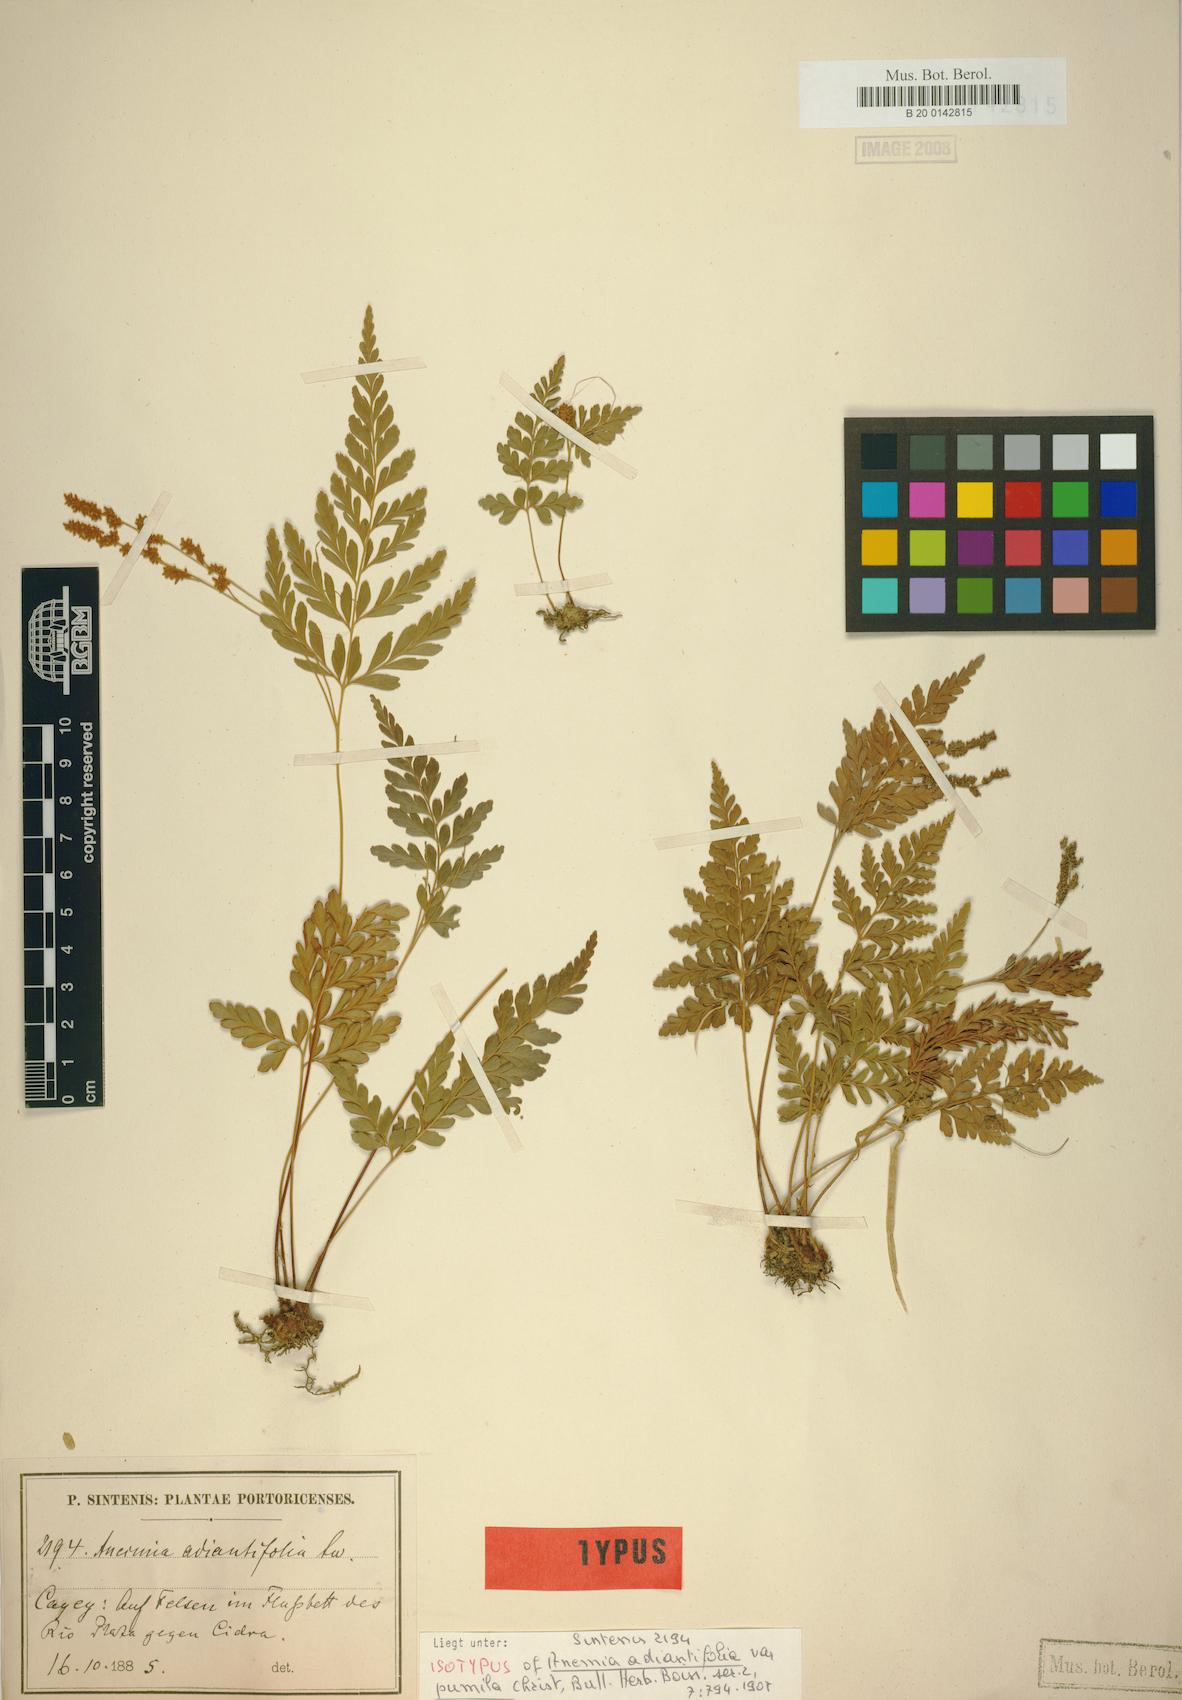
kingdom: Plantae
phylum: Tracheophyta
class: Polypodiopsida
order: Schizaeales
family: Anemiaceae
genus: Anemia
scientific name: Anemia adiantifolia
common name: Pine fern
